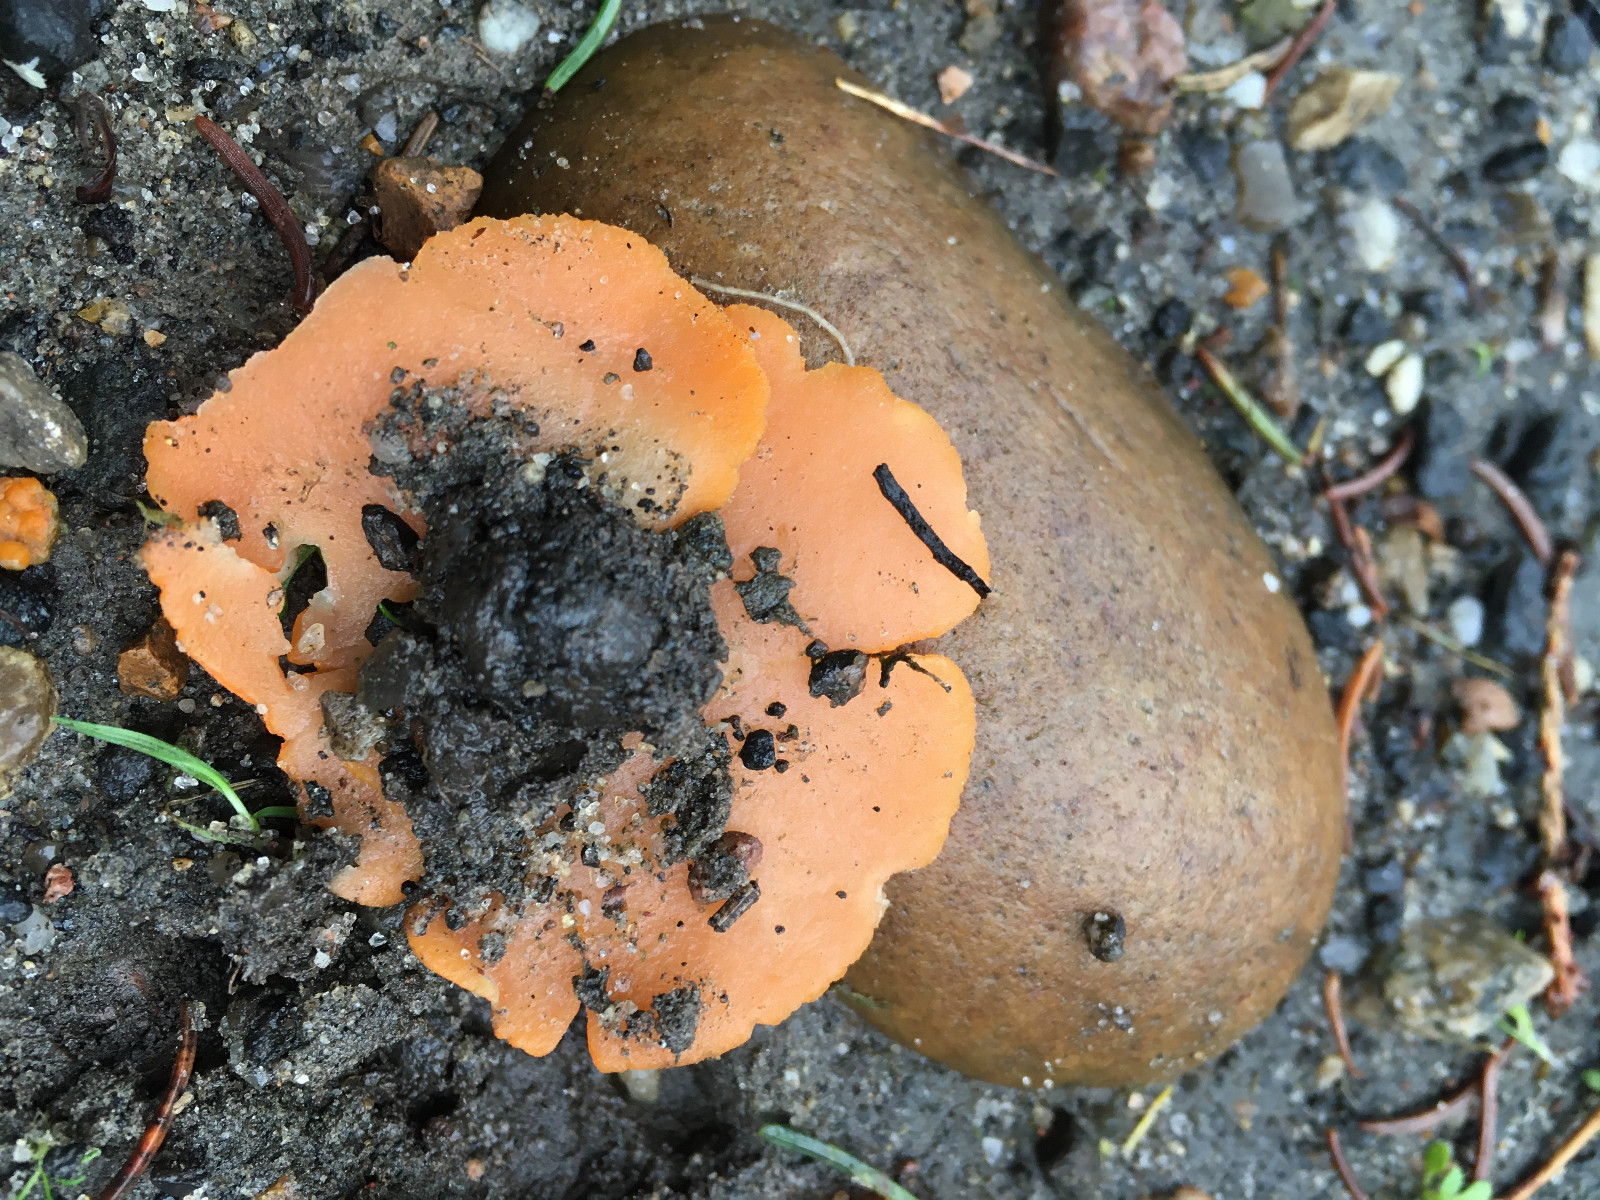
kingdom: Fungi
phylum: Ascomycota
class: Pezizomycetes
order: Pezizales
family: Pyronemataceae
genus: Aleuria
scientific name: Aleuria aurantia
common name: almindelig orangebæger
